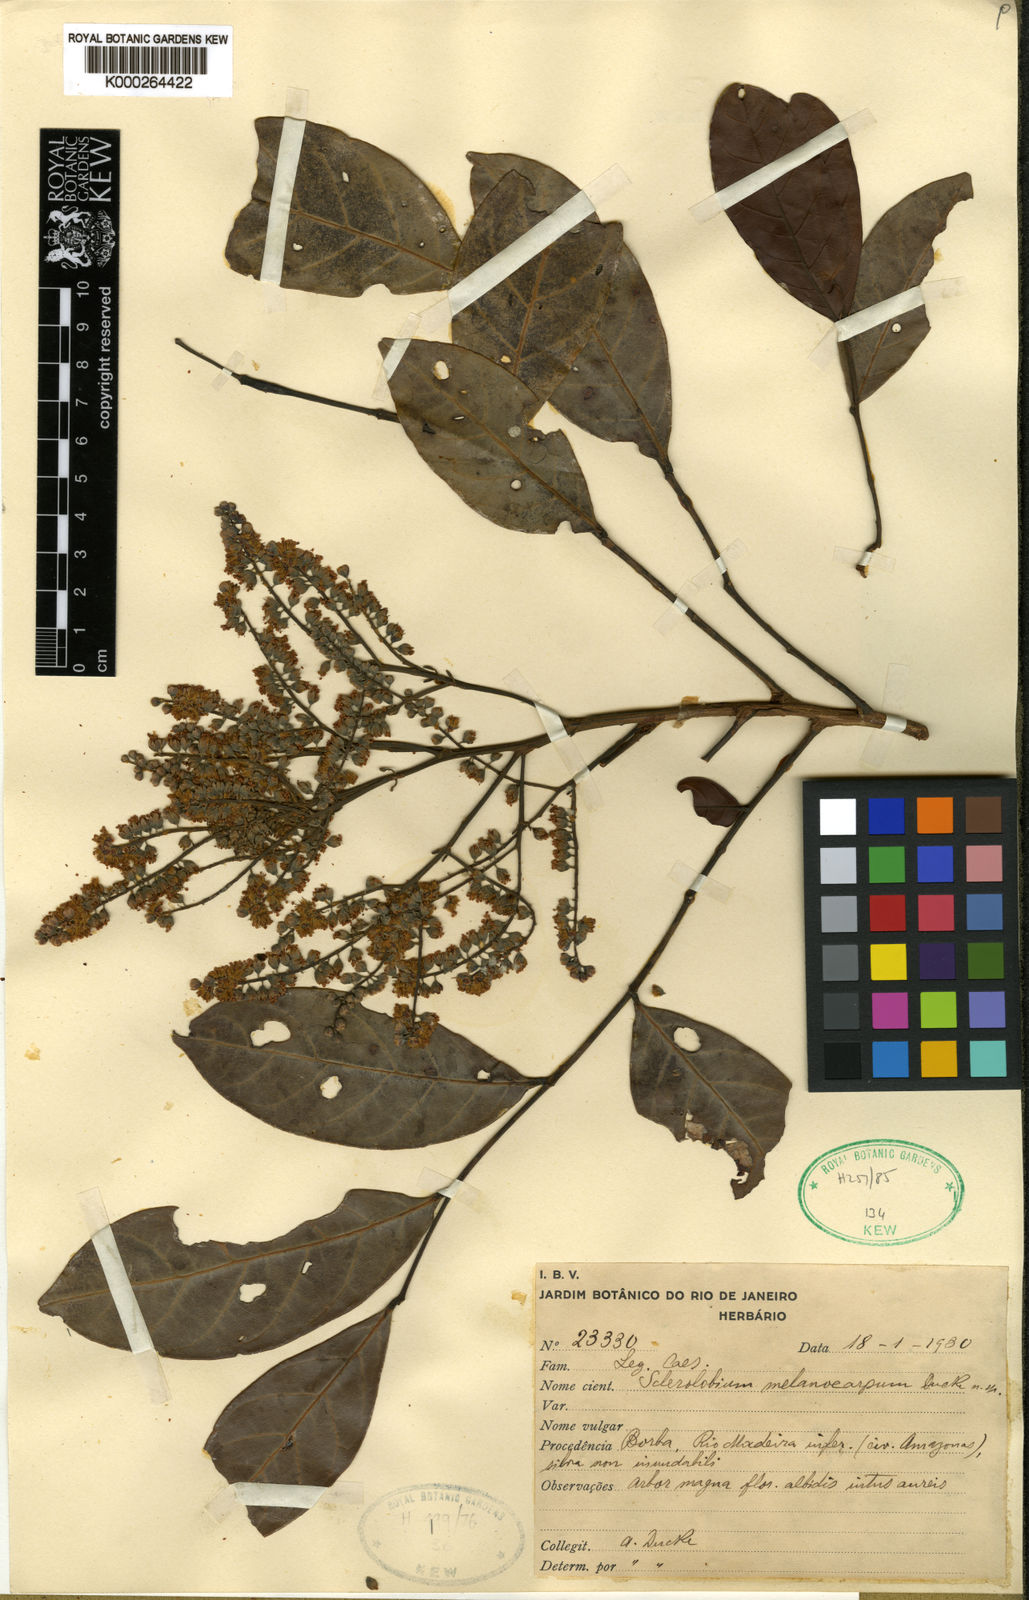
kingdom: Plantae
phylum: Tracheophyta
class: Magnoliopsida
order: Fabales
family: Fabaceae
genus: Tachigali
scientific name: Tachigali melanocarpa
